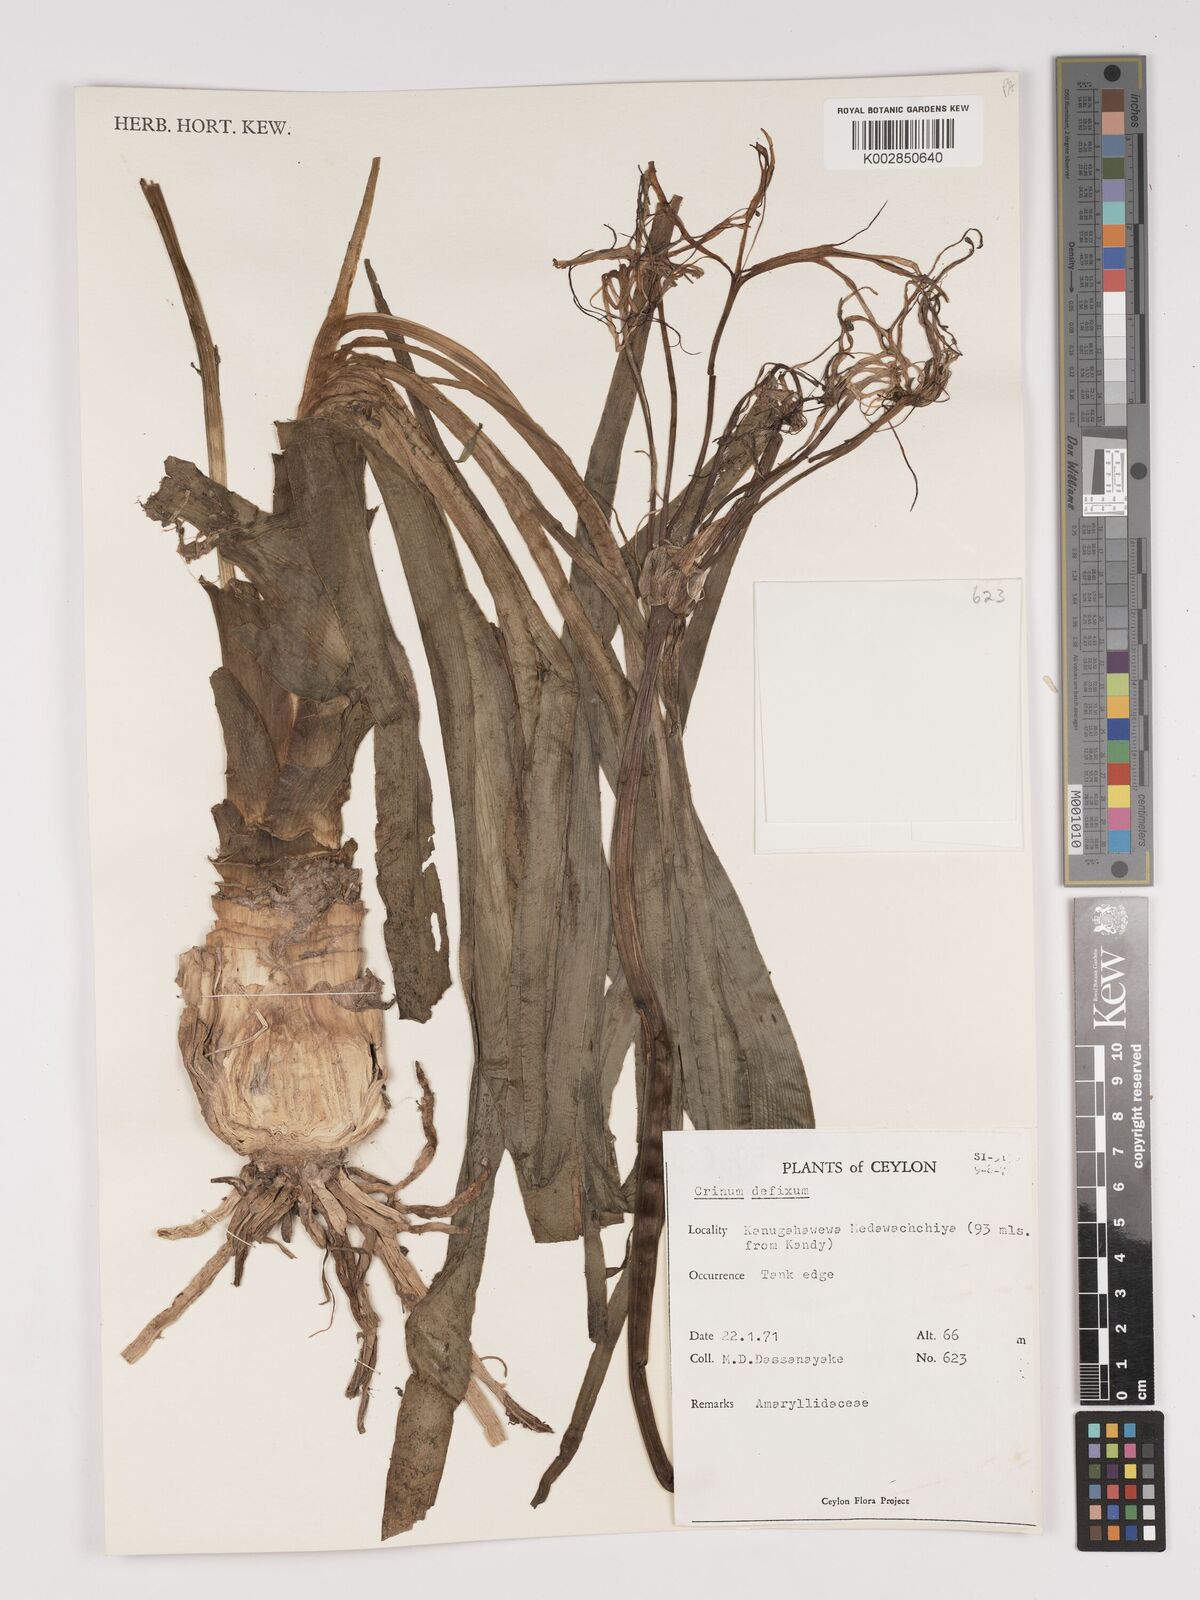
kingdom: Plantae
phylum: Tracheophyta
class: Liliopsida
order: Asparagales
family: Amaryllidaceae
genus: Crinum
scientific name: Crinum defixum
